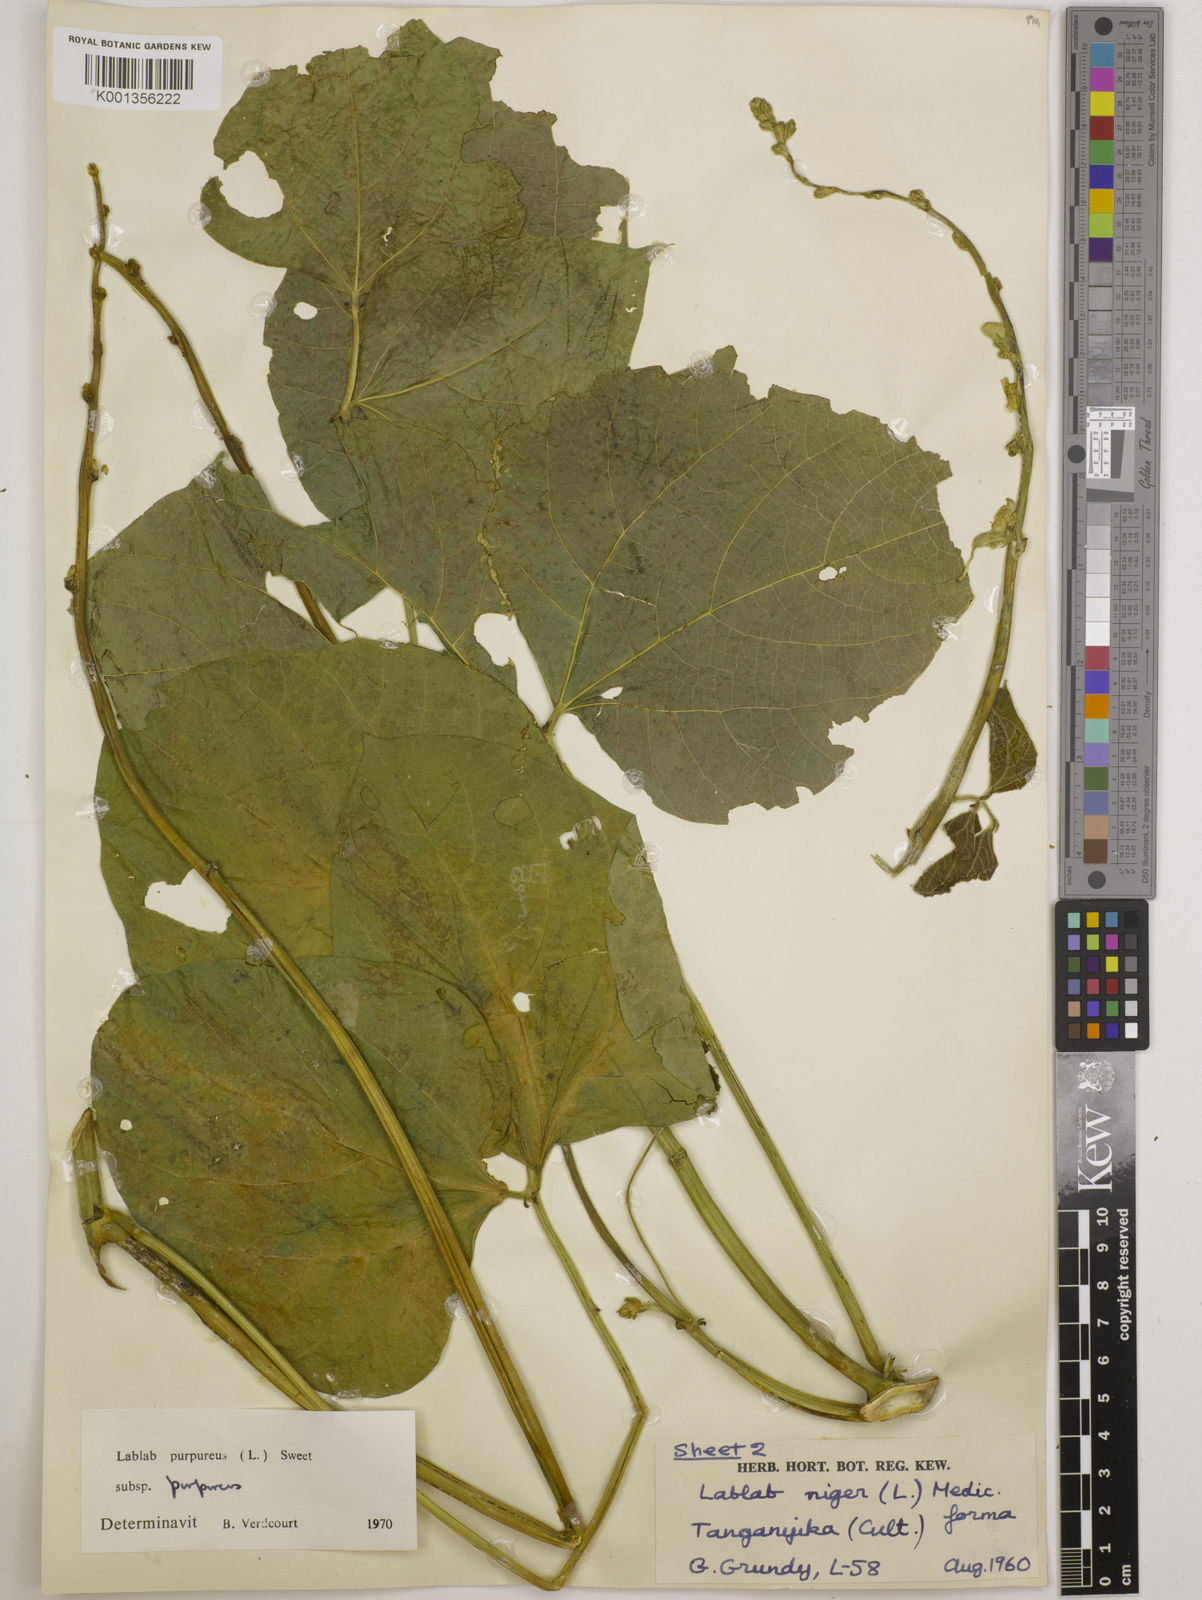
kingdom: Plantae
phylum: Tracheophyta
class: Magnoliopsida
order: Fabales
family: Fabaceae
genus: Lablab
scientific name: Lablab purpureus
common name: Lablab-bean
